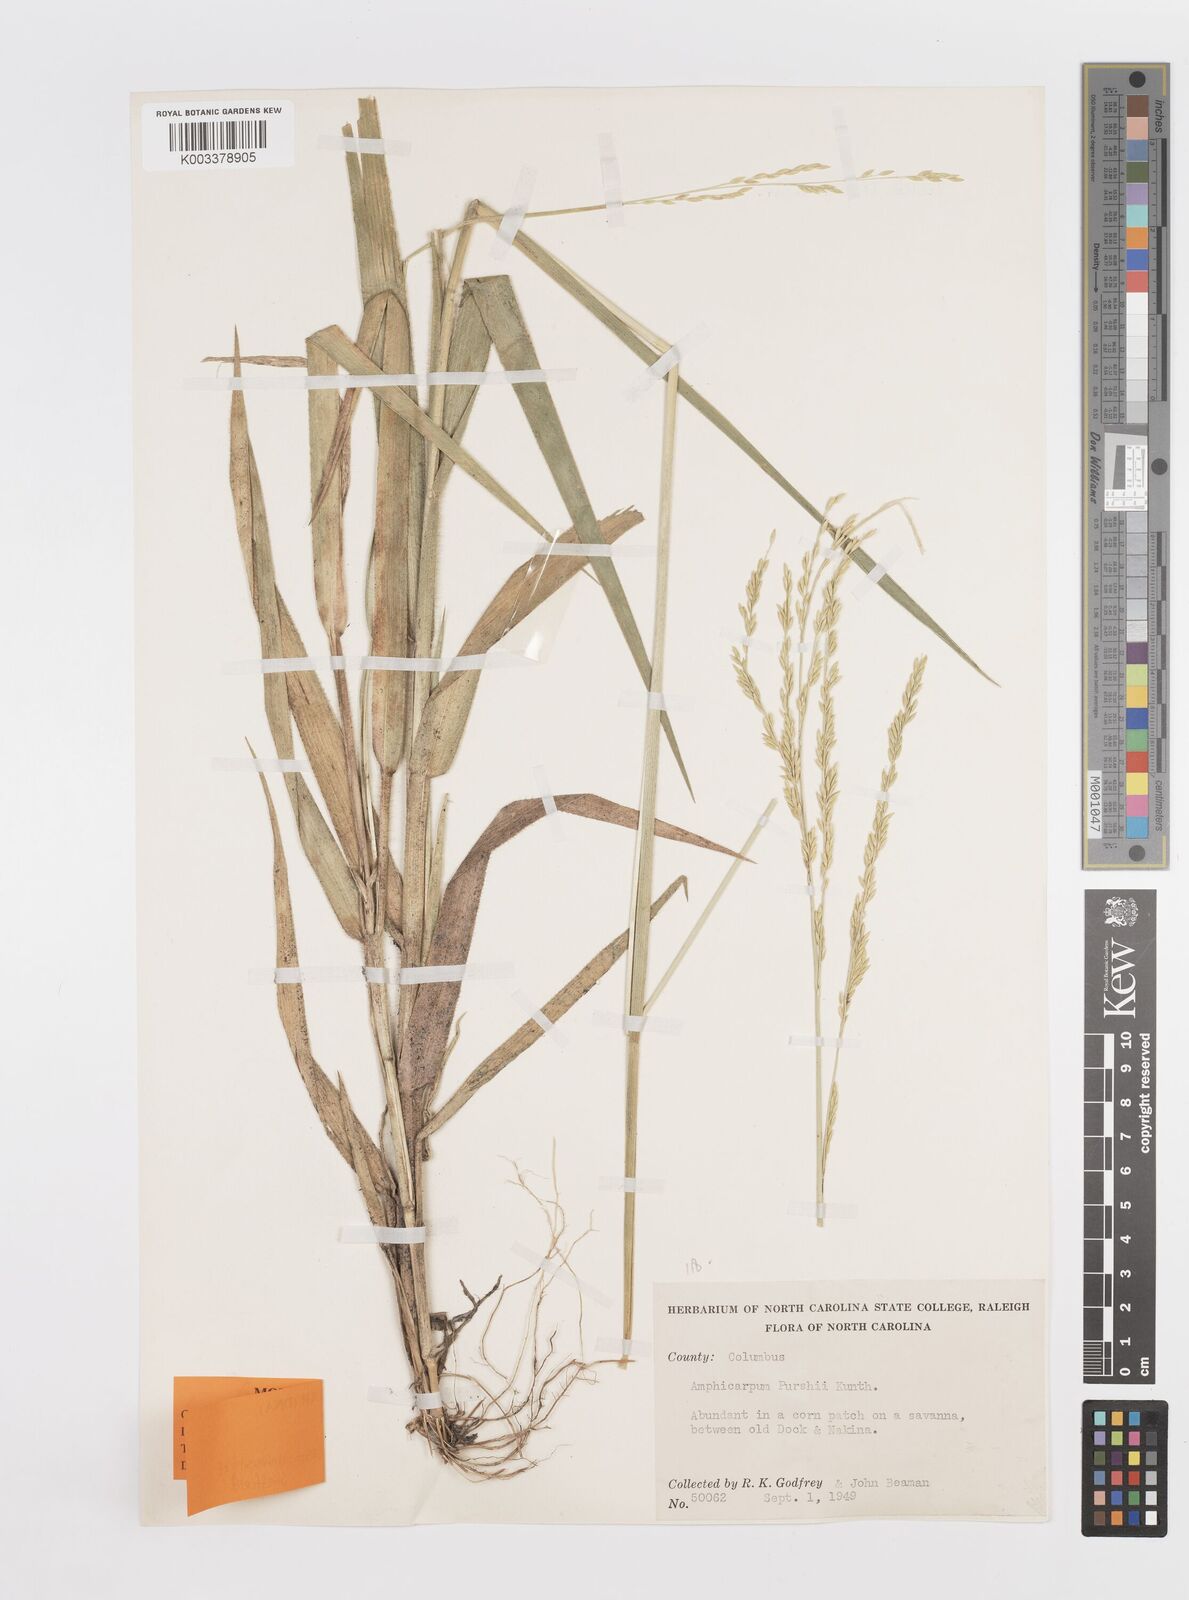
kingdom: Plantae
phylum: Tracheophyta
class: Liliopsida
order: Poales
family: Poaceae
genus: Amphicarpum
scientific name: Amphicarpum amphicarpon
